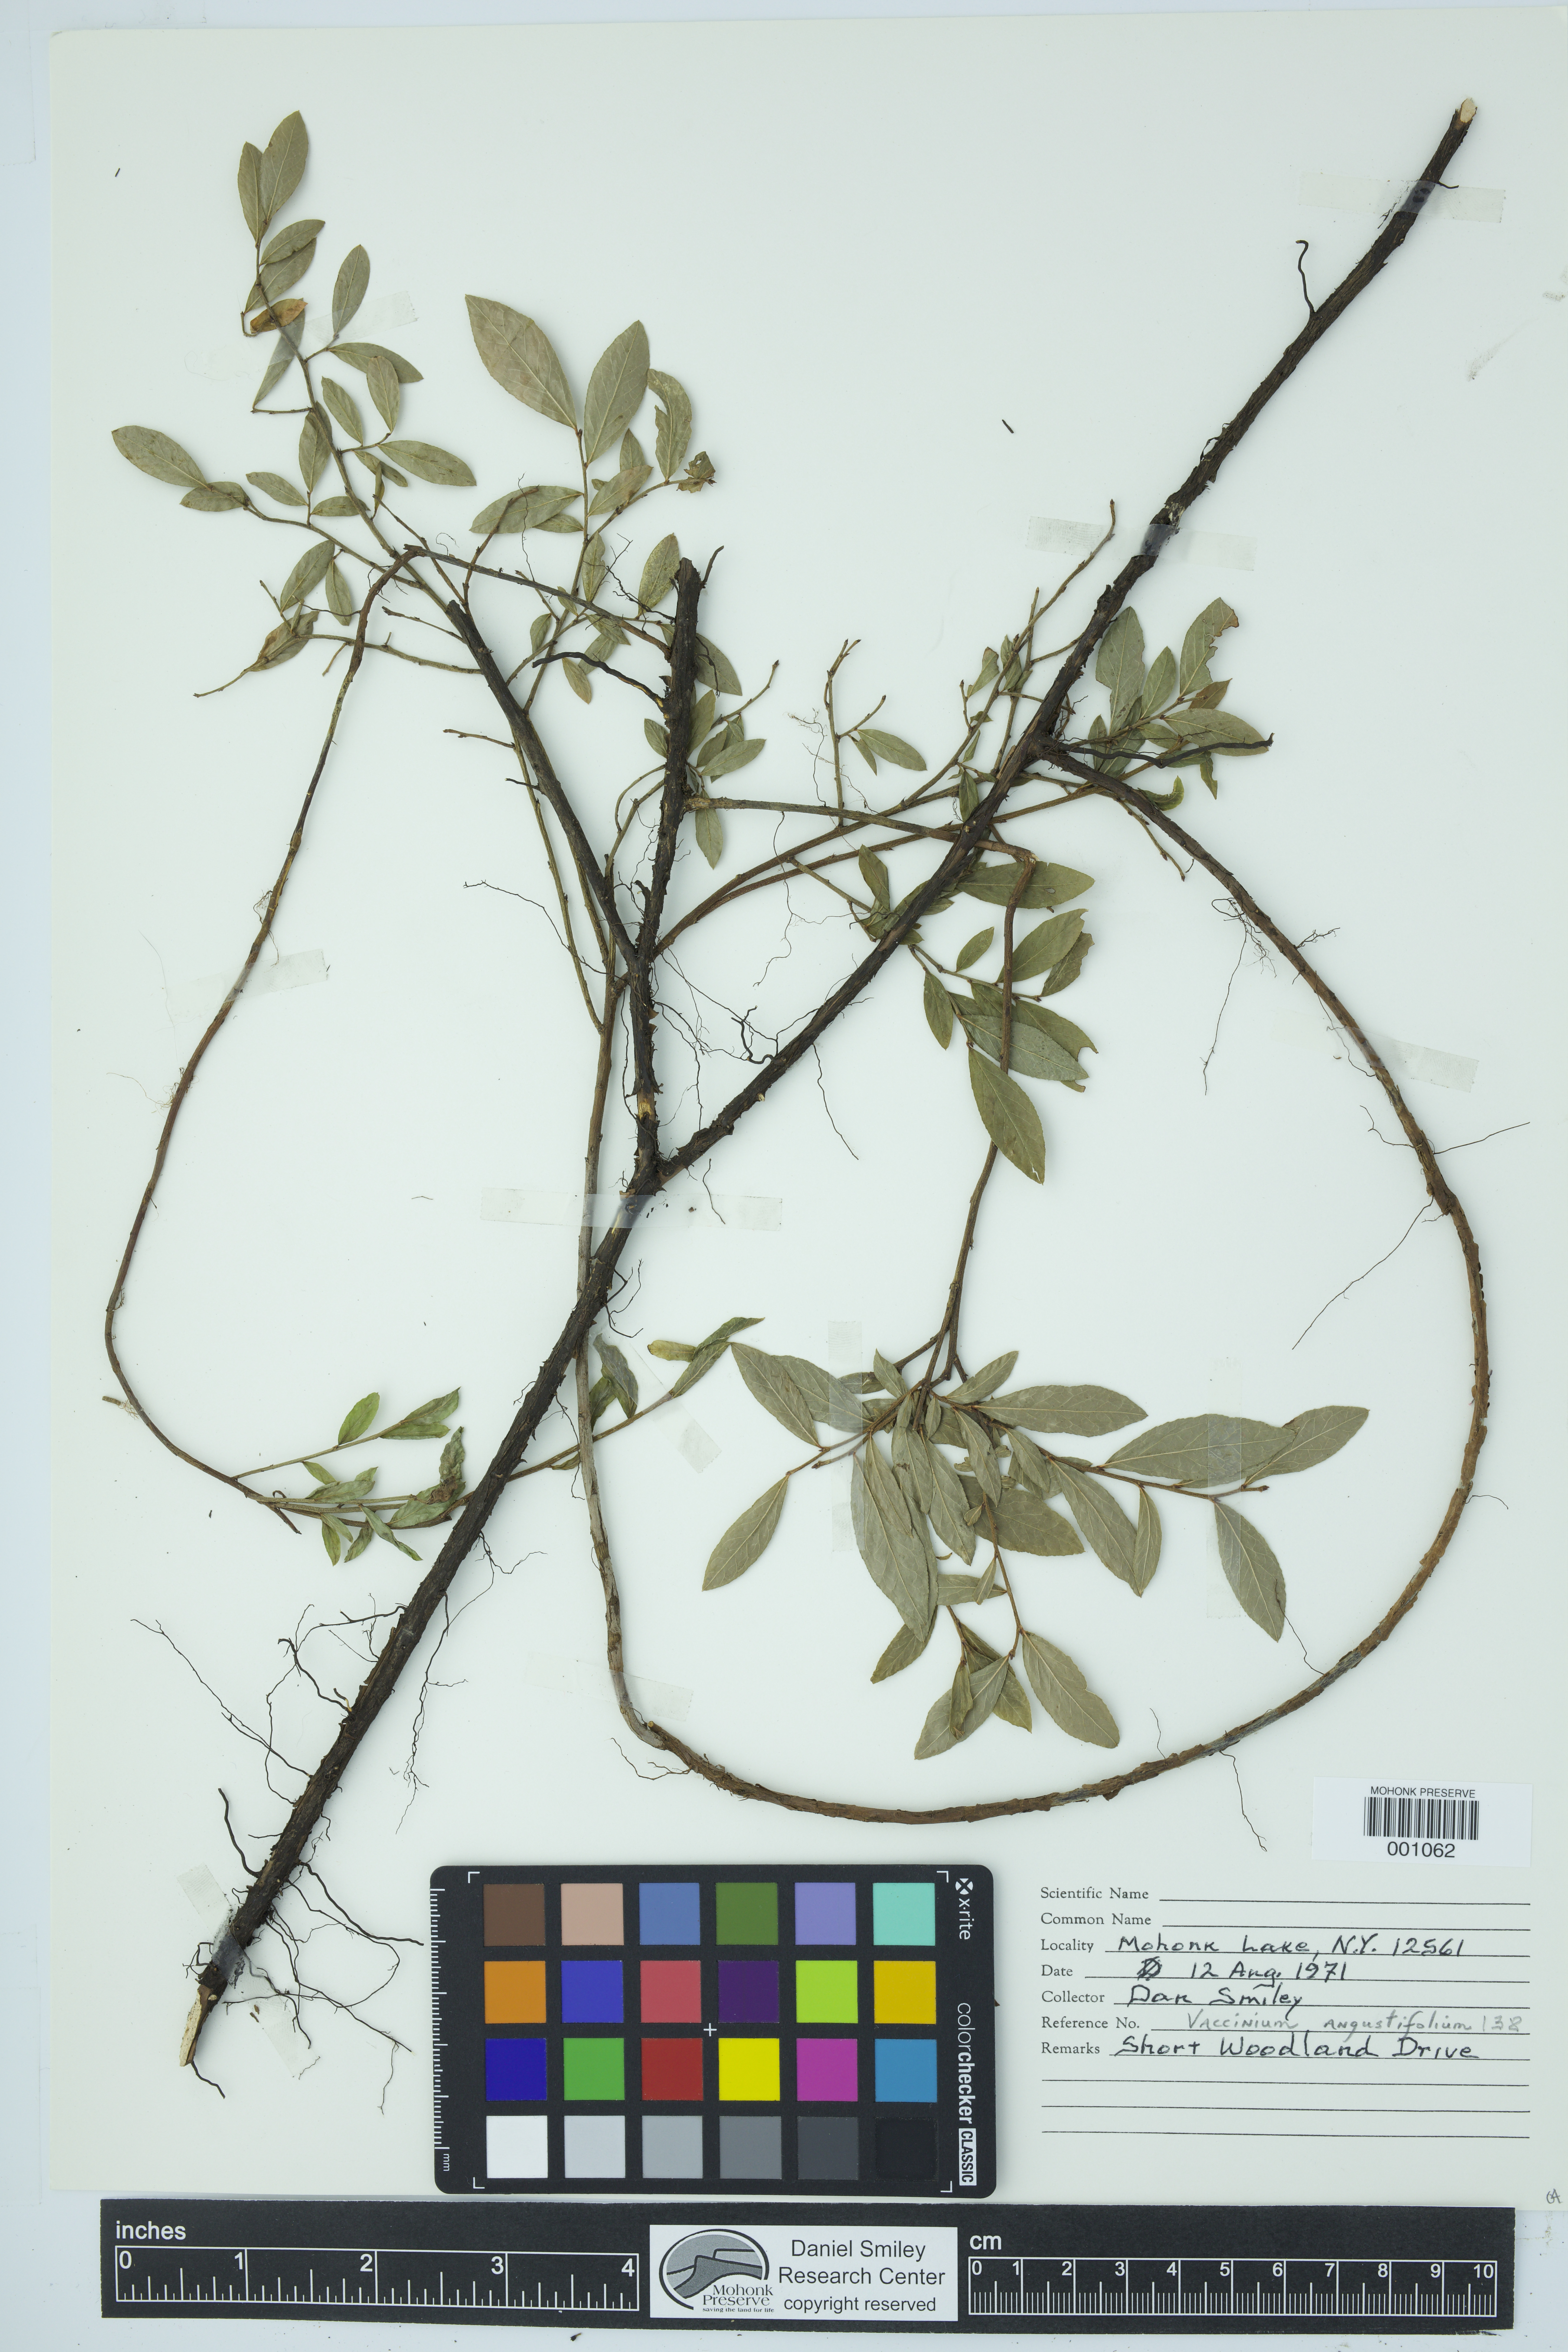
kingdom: Plantae
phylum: Tracheophyta
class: Magnoliopsida
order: Ericales
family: Ericaceae
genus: Vaccinium
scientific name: Vaccinium angustifolium
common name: Early lowbush blueberry
